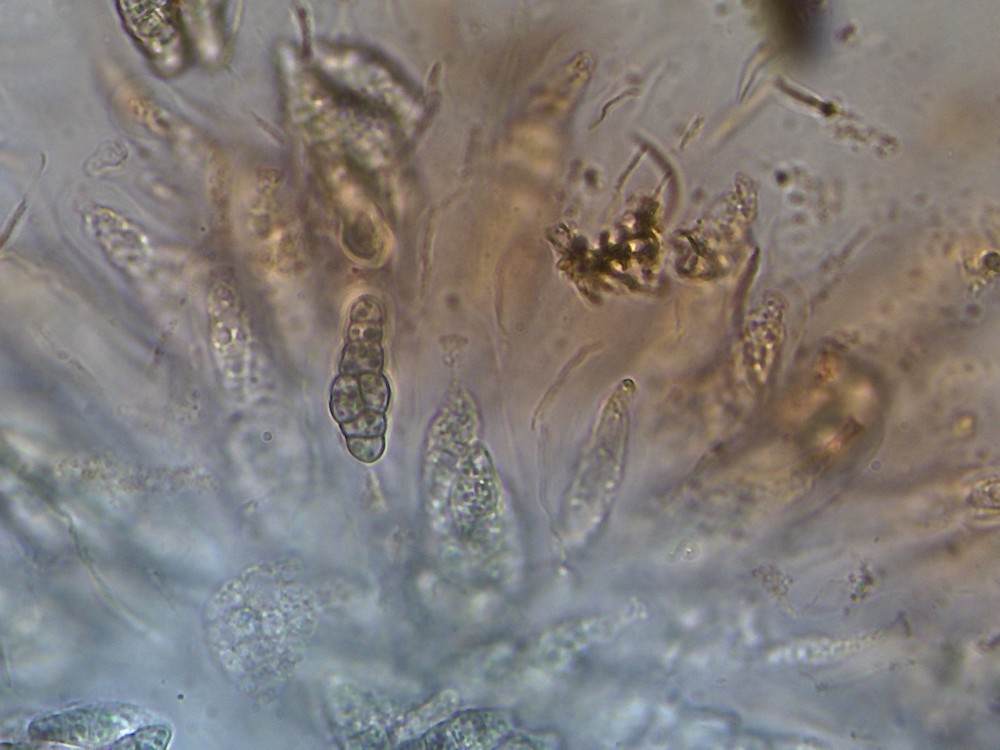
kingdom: Fungi
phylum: Ascomycota
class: Eurotiomycetes
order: Chaetothyriales
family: Herpotrichiellaceae
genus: Capronia
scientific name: Capronia nigerrima
